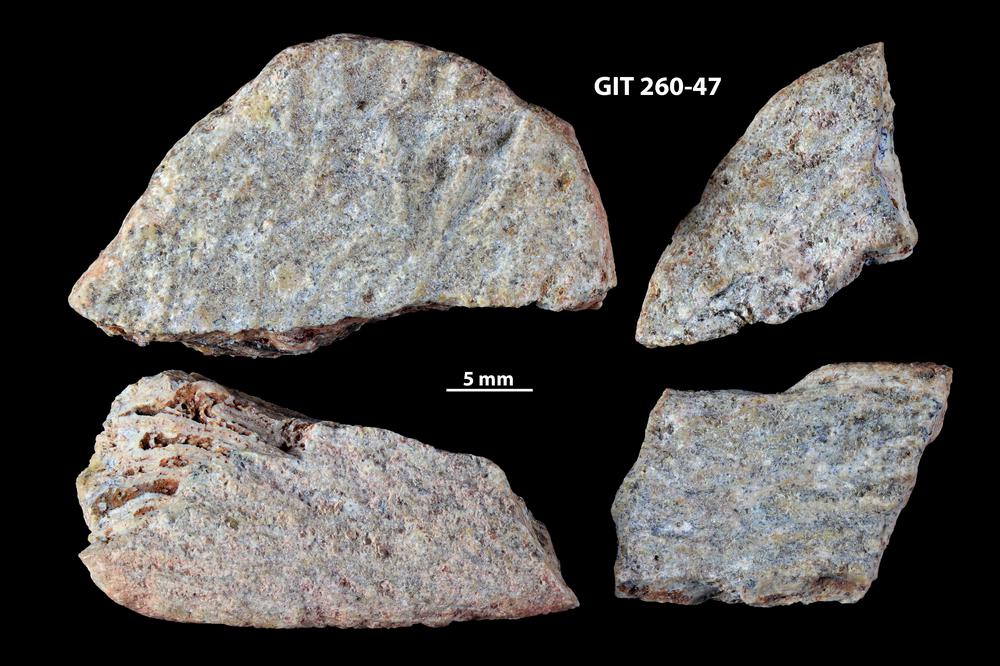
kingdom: Animalia
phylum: Chordata
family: Homostiidae
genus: Homostius
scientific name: Homostius
